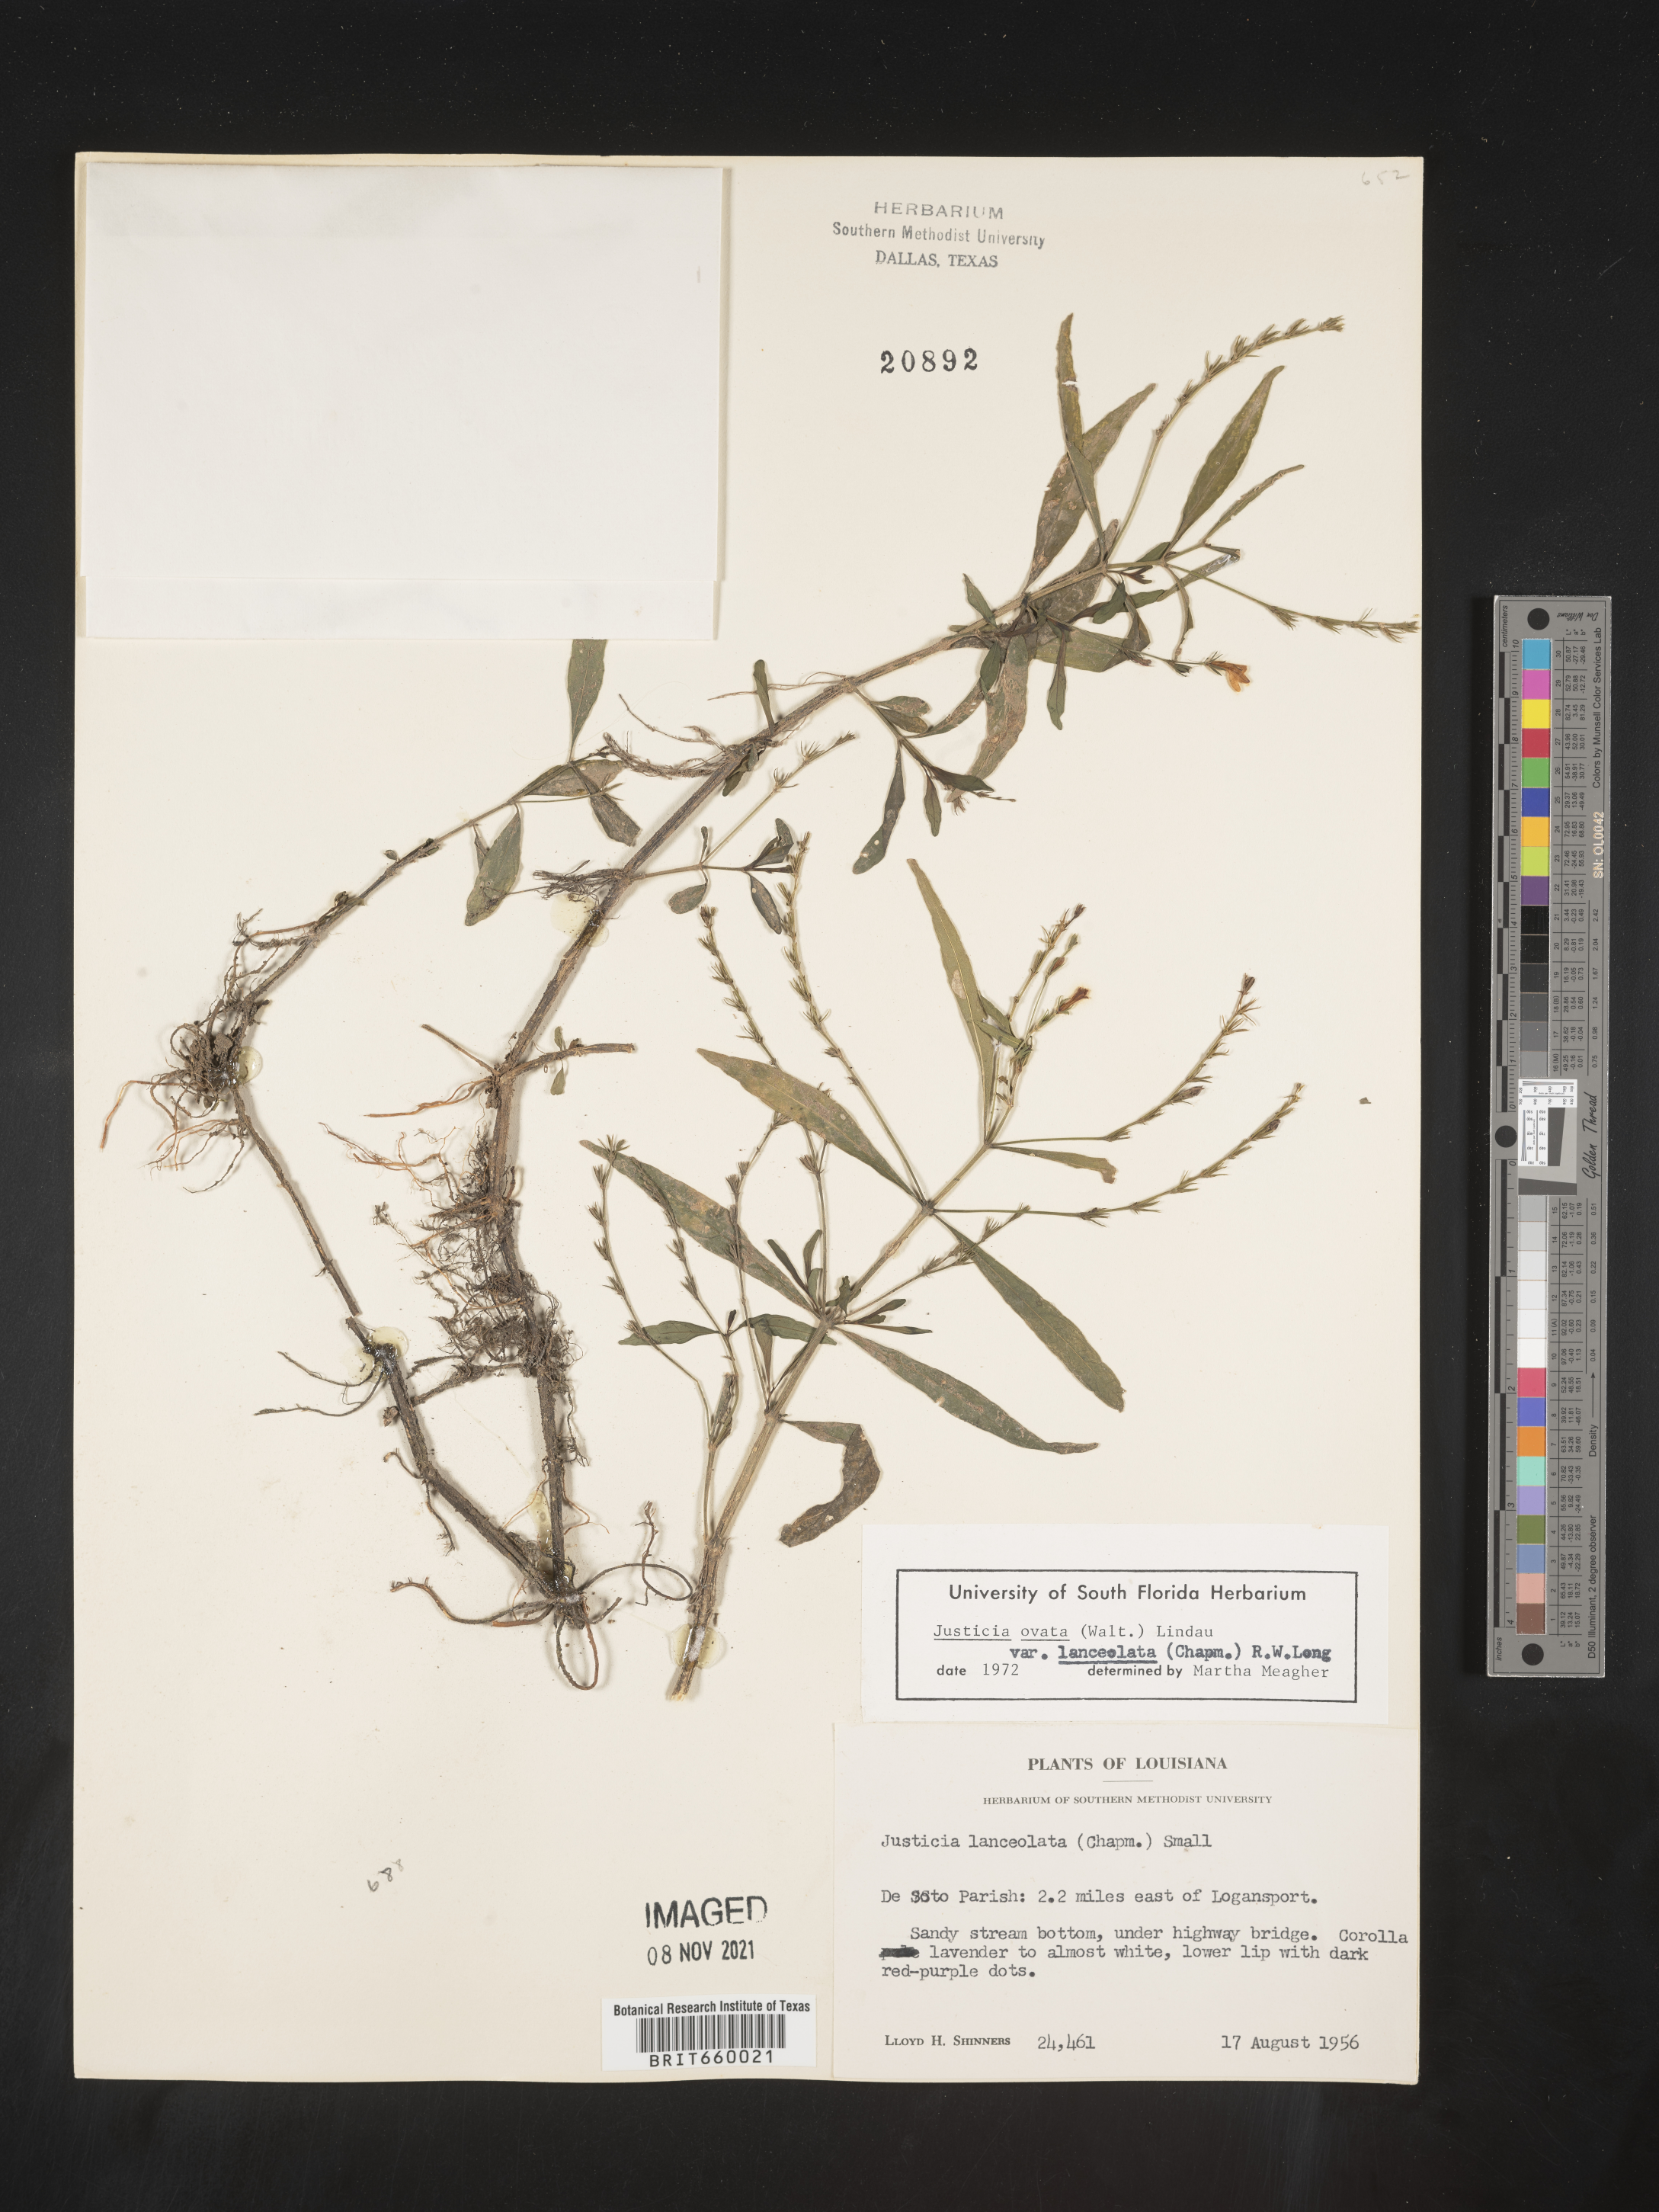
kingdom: Plantae
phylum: Tracheophyta
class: Magnoliopsida
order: Lamiales
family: Acanthaceae
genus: Justicia
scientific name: Justicia lanceolata
